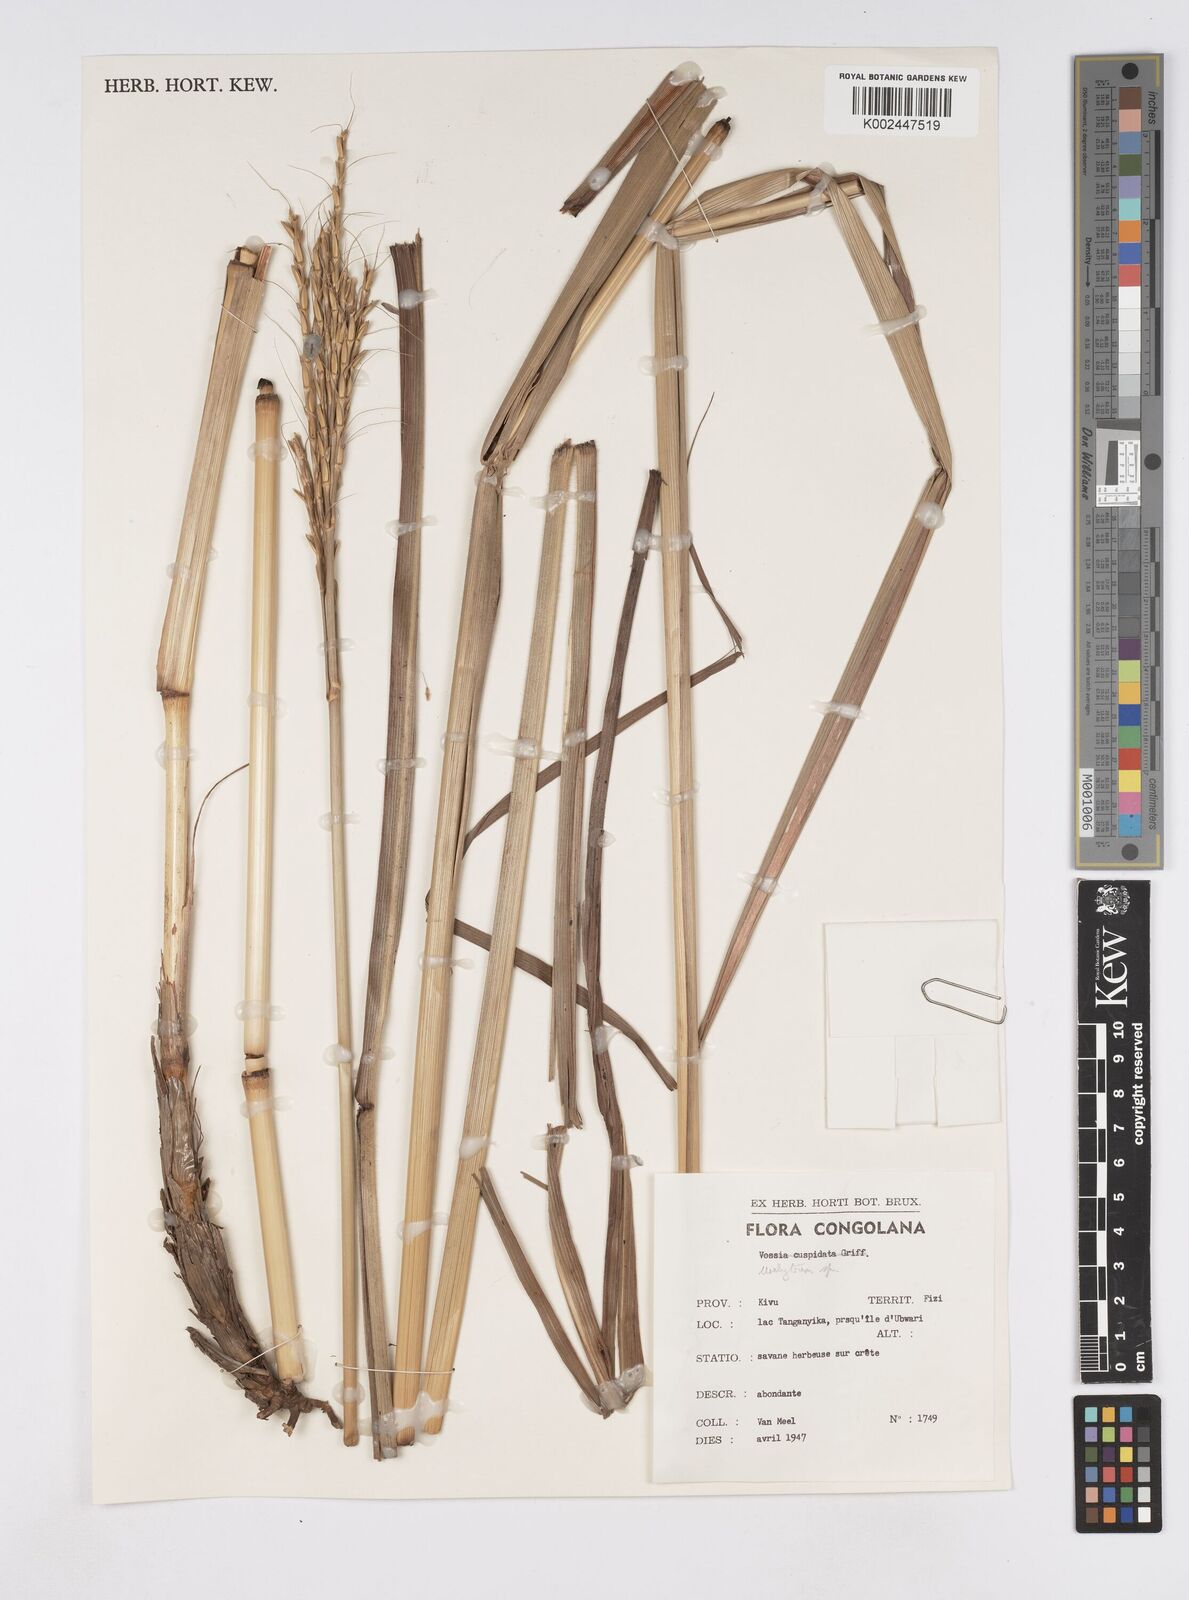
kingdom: Plantae
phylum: Tracheophyta
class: Liliopsida
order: Poales
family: Poaceae
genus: Urelytrum
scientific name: Urelytrum digitatum
